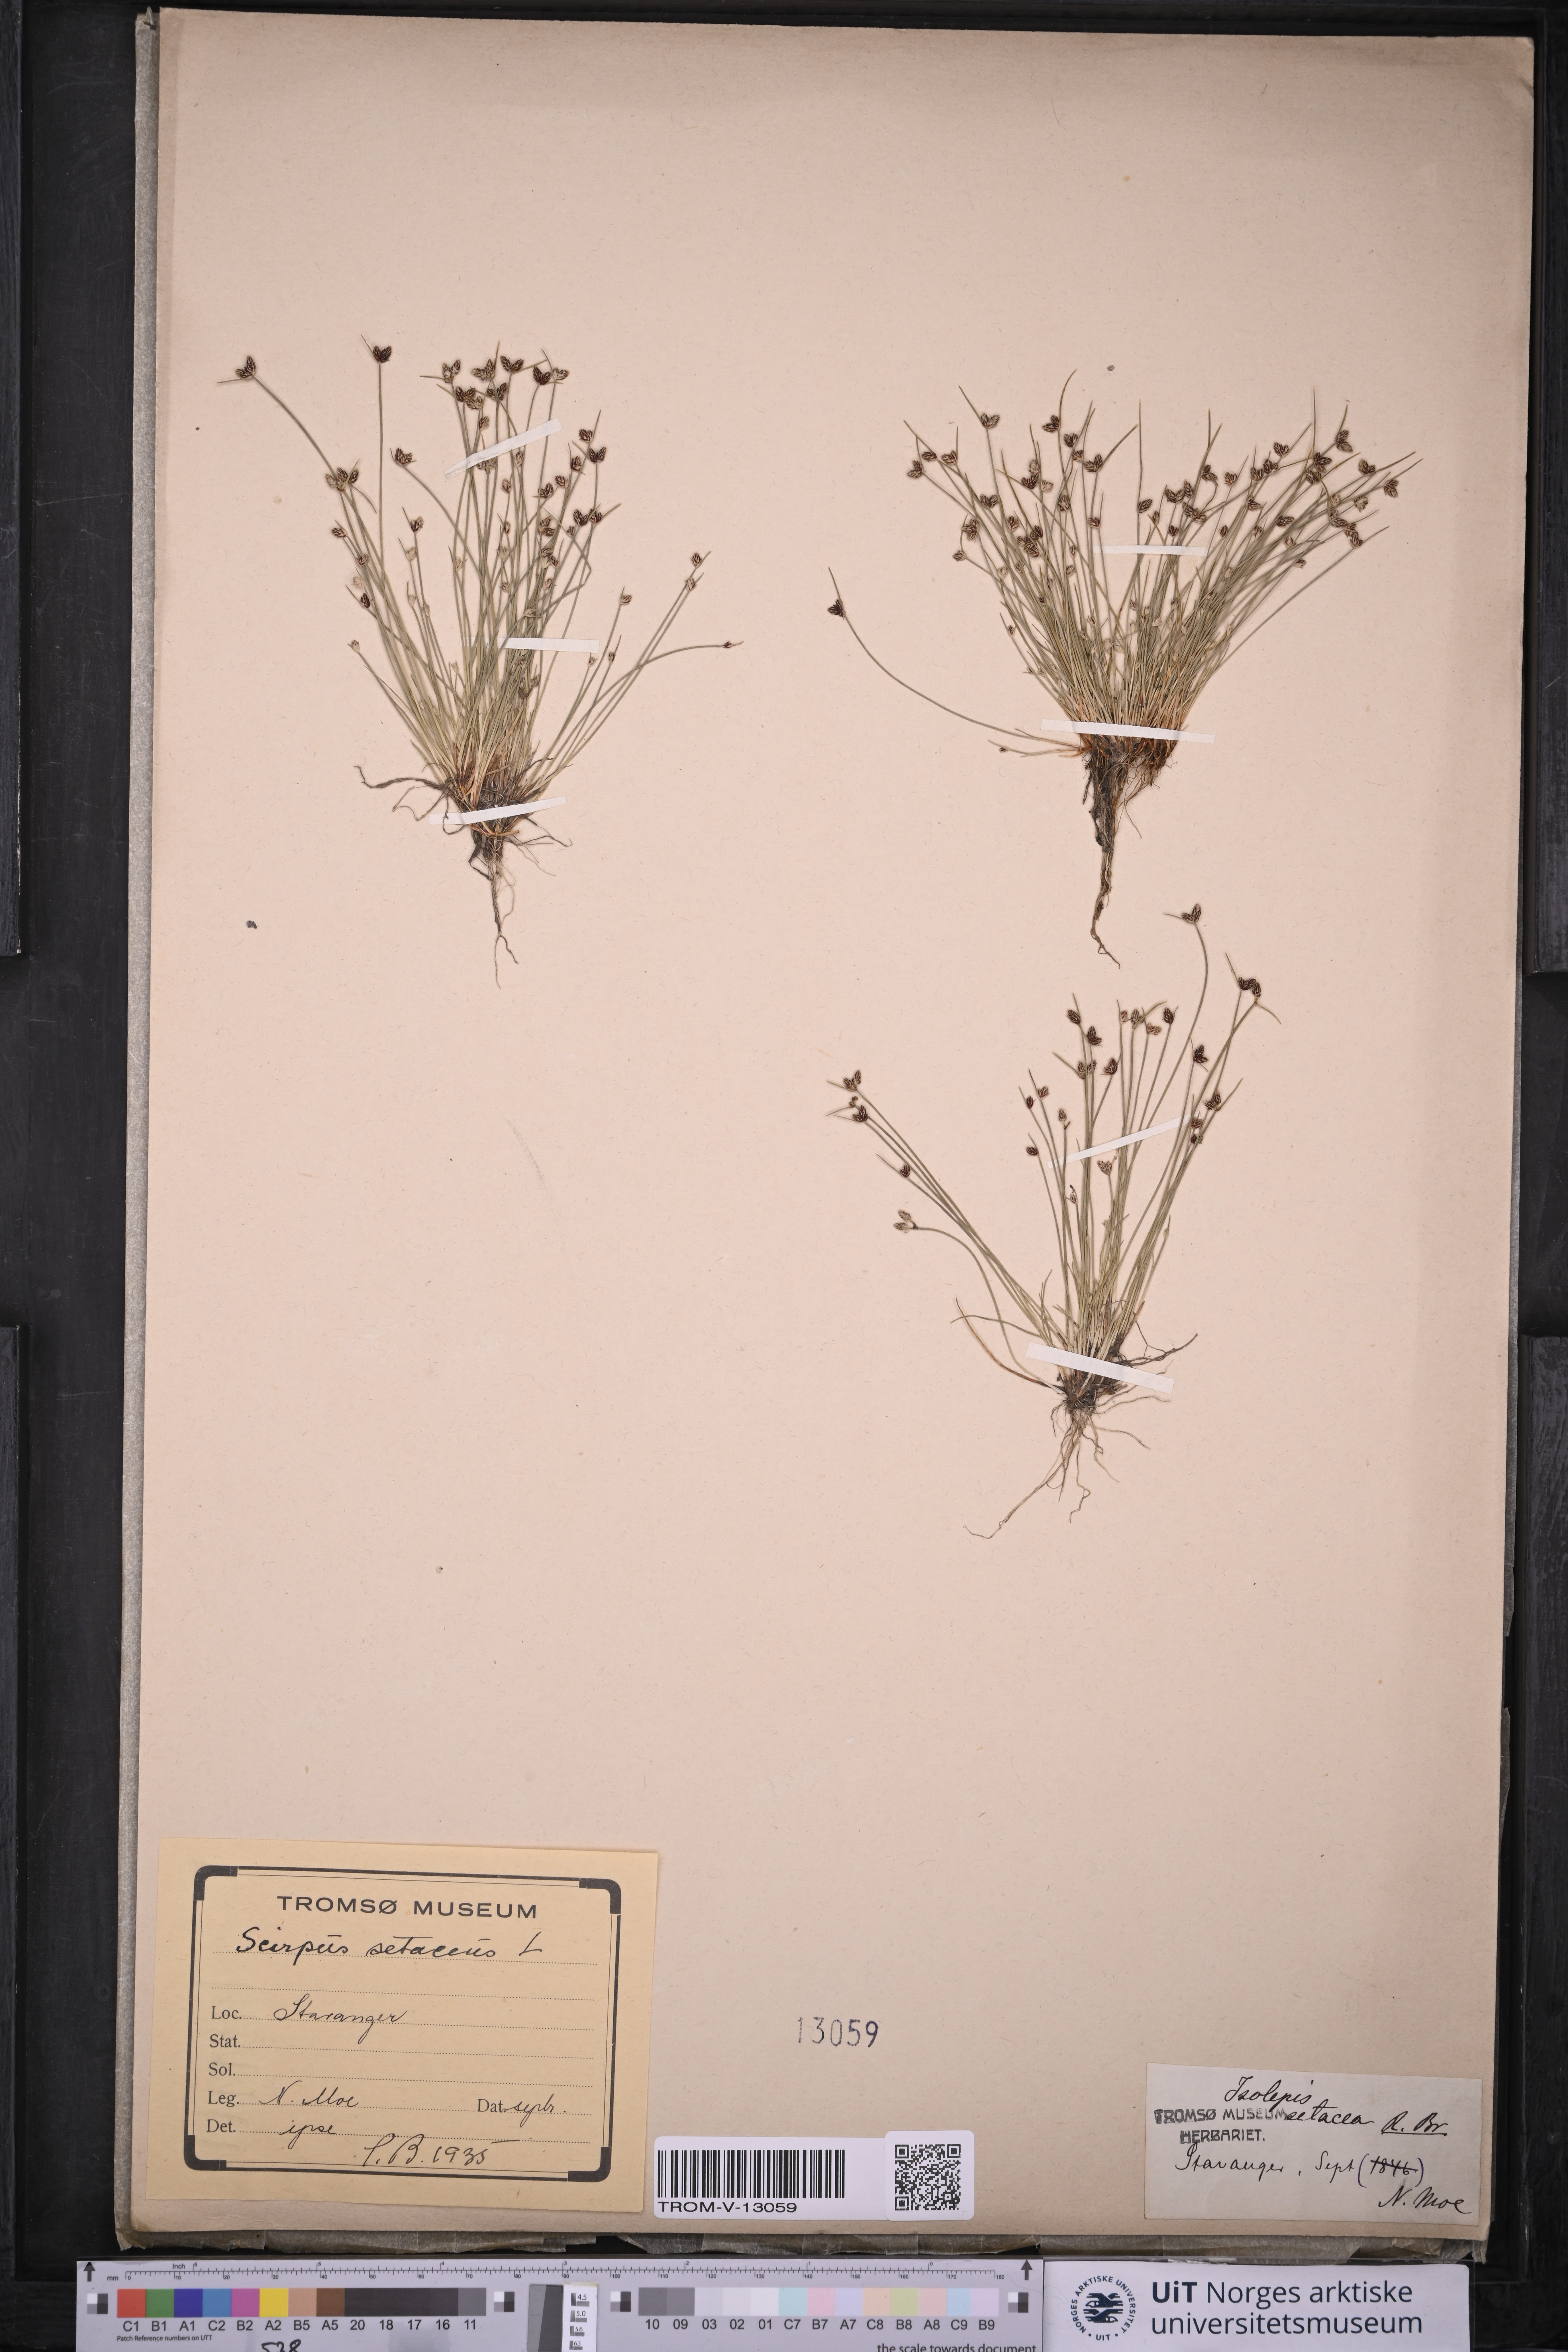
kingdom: Plantae
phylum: Tracheophyta
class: Liliopsida
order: Poales
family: Cyperaceae
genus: Isolepis
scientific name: Isolepis setacea
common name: Bristle club-rush
